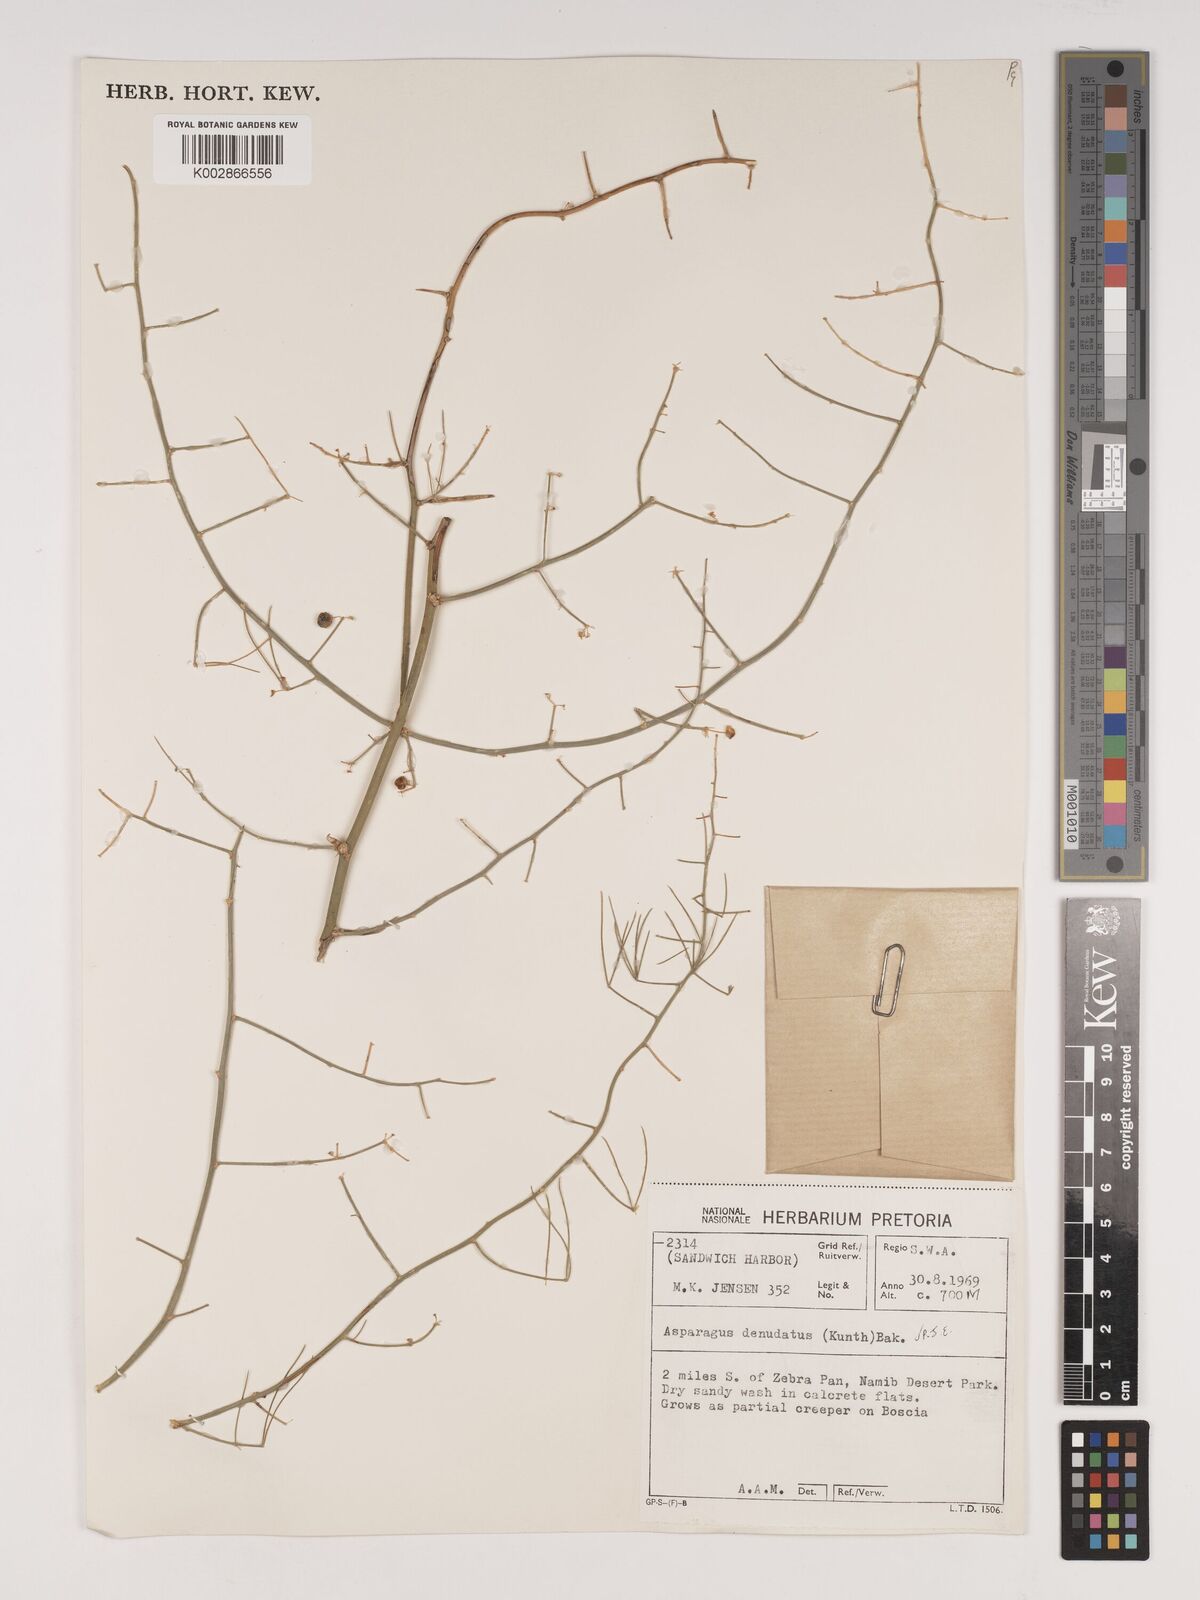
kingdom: Plantae
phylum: Tracheophyta
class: Liliopsida
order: Asparagales
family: Asparagaceae
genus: Asparagus
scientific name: Asparagus denudatus
